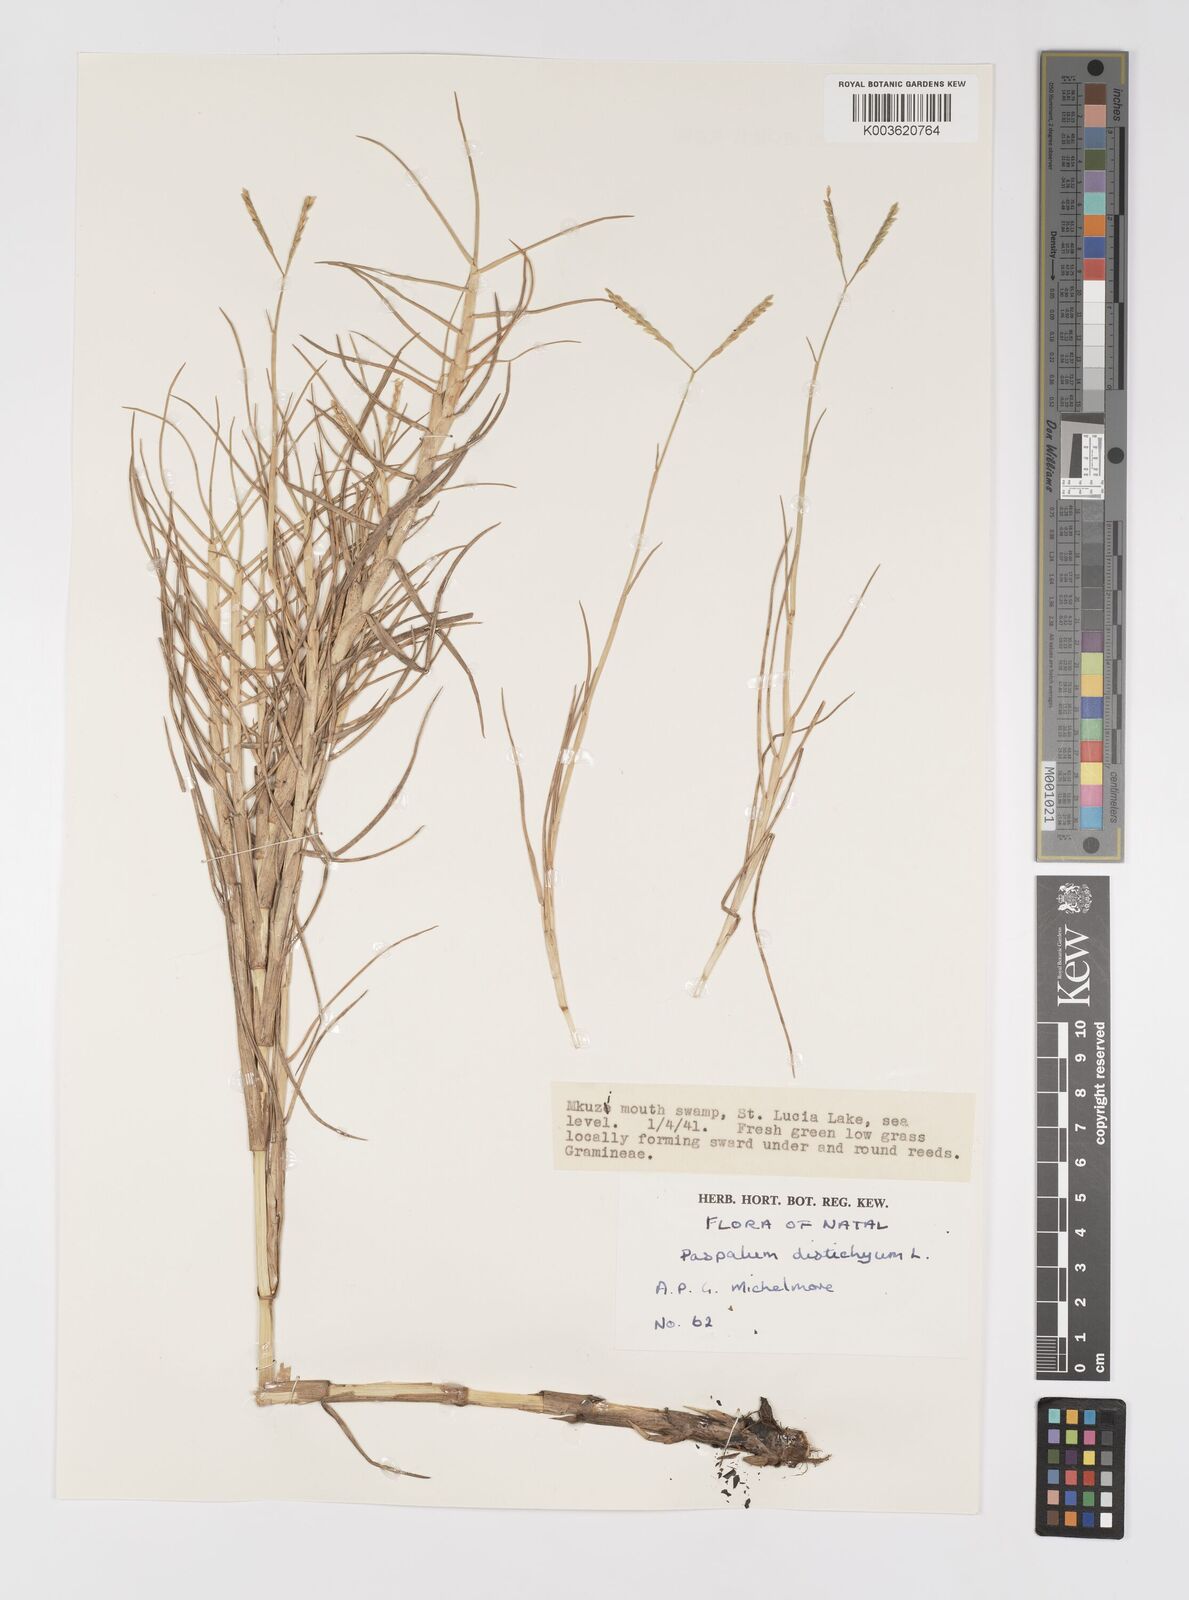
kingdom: Plantae
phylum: Tracheophyta
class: Liliopsida
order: Poales
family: Poaceae
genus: Paspalum
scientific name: Paspalum vaginatum
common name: Seashore paspalum
